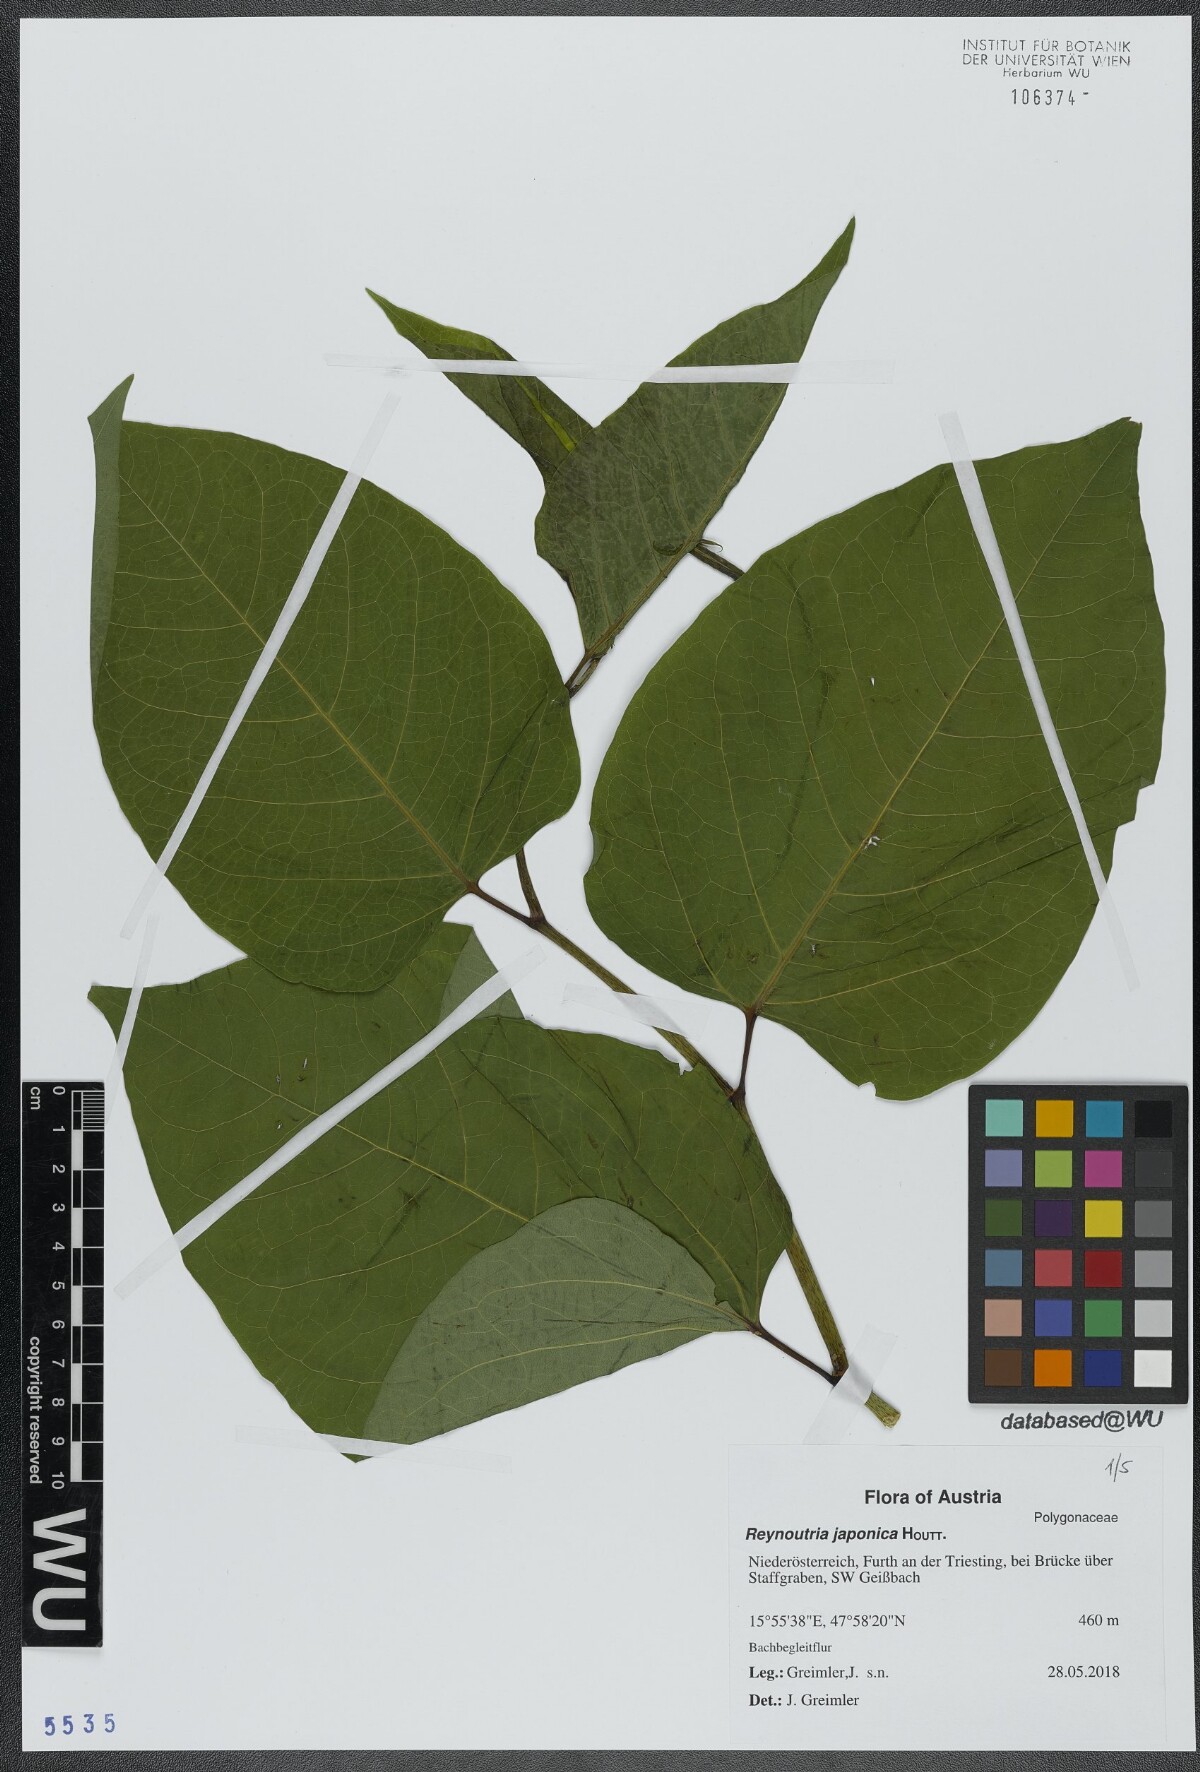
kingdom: Plantae
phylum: Tracheophyta
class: Magnoliopsida
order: Caryophyllales
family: Polygonaceae
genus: Reynoutria
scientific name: Reynoutria bohemica
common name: Bohemian knotweed
